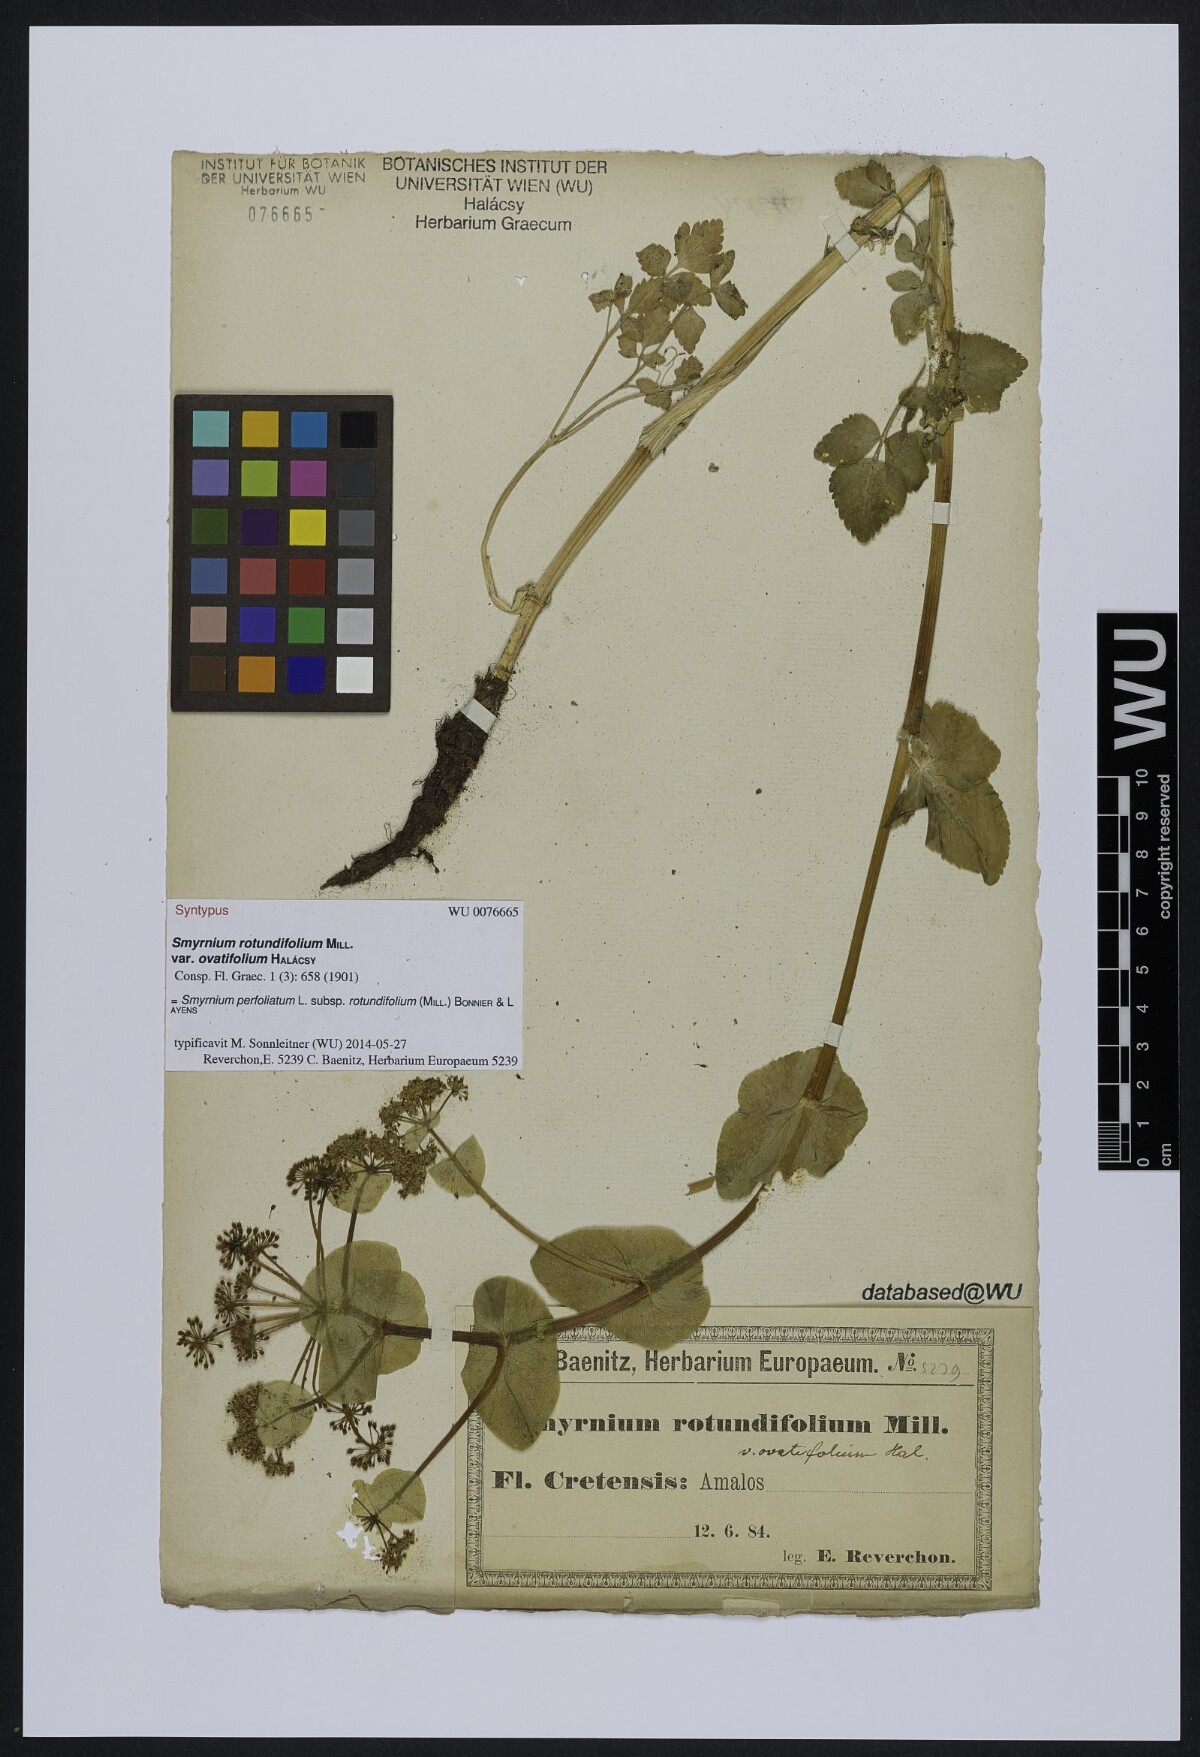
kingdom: Plantae
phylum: Tracheophyta
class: Magnoliopsida
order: Apiales
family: Apiaceae
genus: Smyrnium
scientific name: Smyrnium perfoliatum
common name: Perfoliate alexanders
